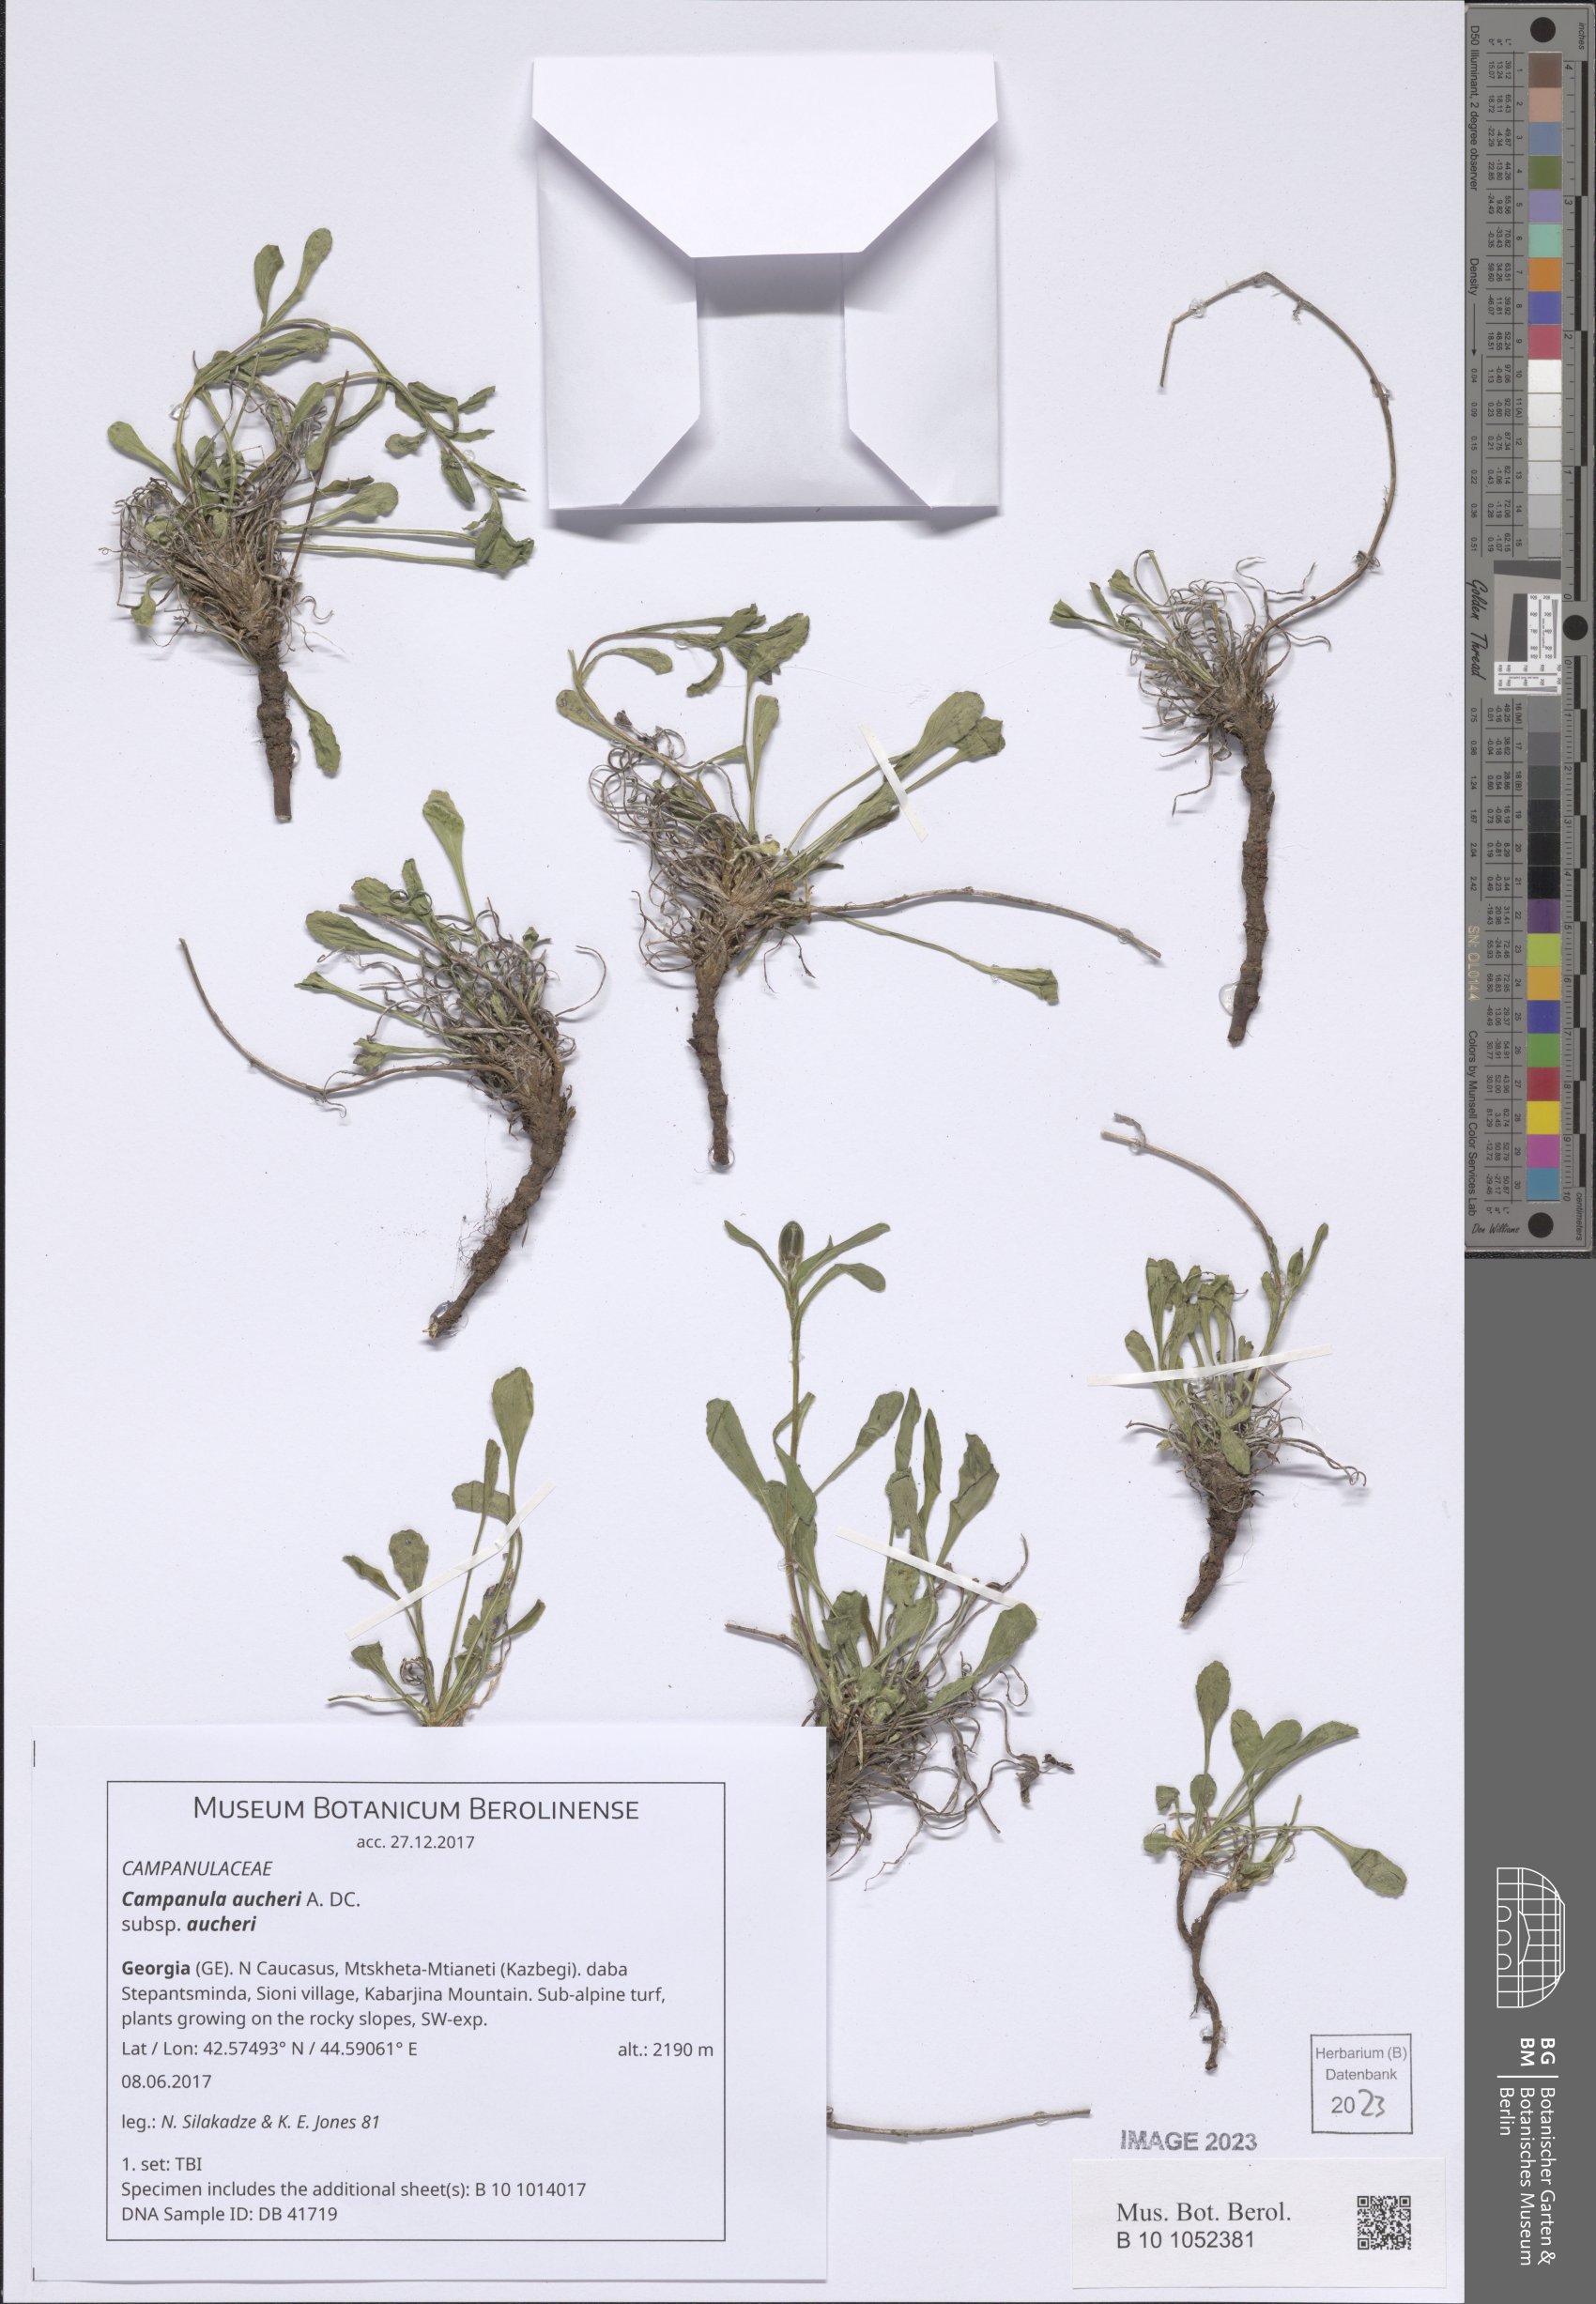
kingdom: Plantae
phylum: Tracheophyta
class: Magnoliopsida
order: Asterales
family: Campanulaceae
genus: Campanula
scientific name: Campanula saxifraga
